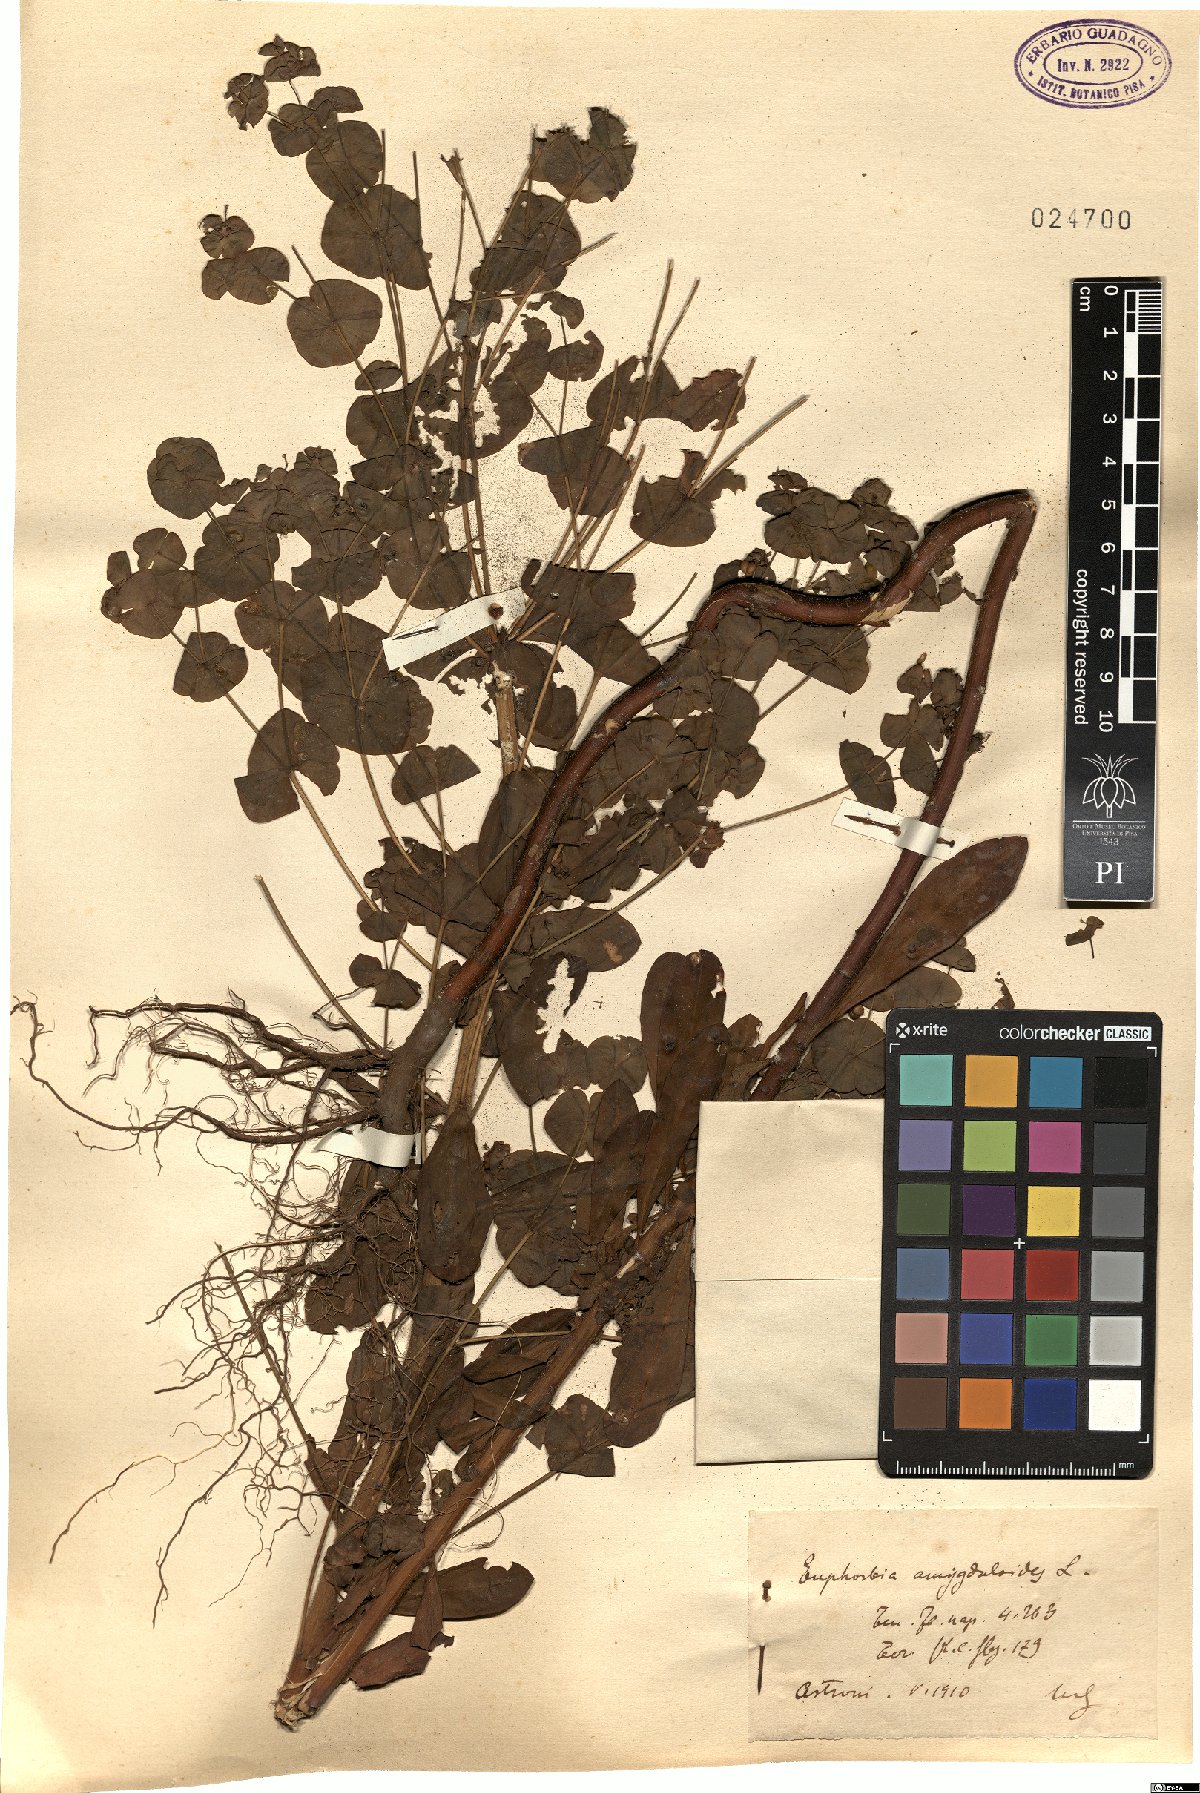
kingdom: Plantae
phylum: Tracheophyta
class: Magnoliopsida
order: Malpighiales
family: Euphorbiaceae
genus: Euphorbia
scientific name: Euphorbia amygdaloides
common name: Wood spurge
